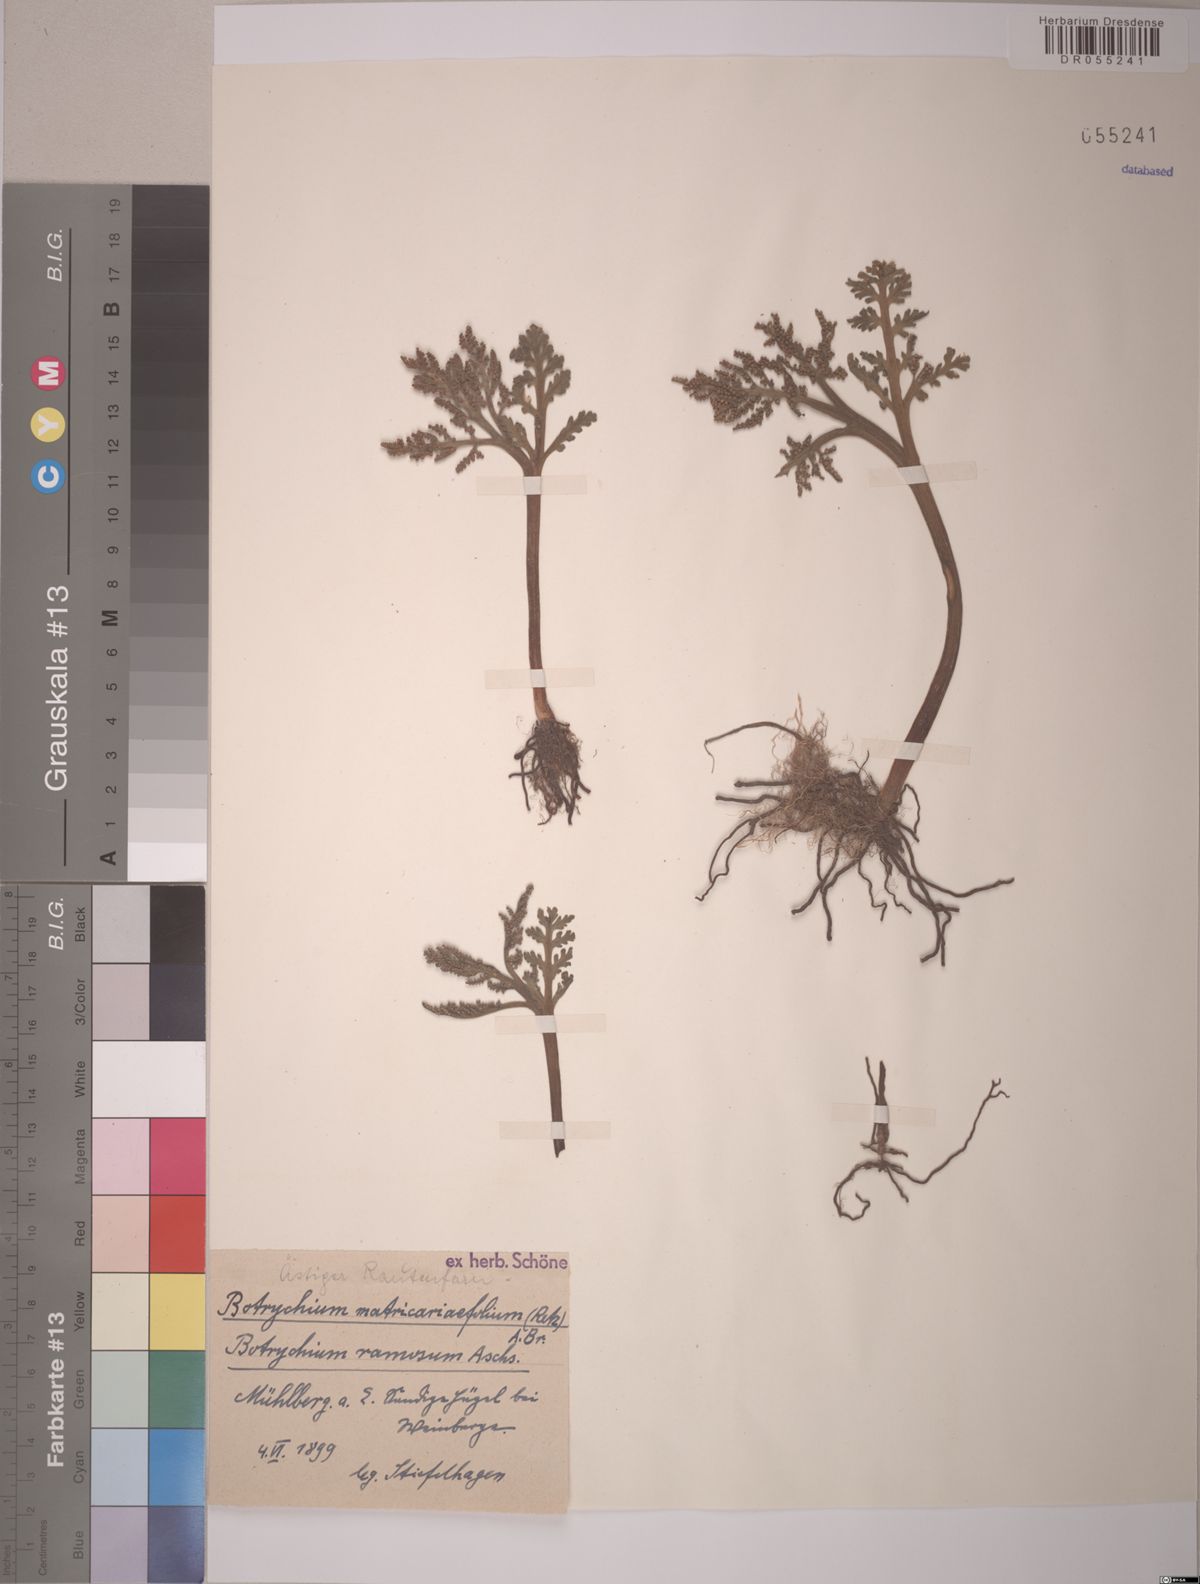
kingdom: Plantae
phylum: Tracheophyta
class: Polypodiopsida
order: Ophioglossales
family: Ophioglossaceae
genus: Botrychium
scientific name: Botrychium matricariifolium
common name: Branched moonwort
